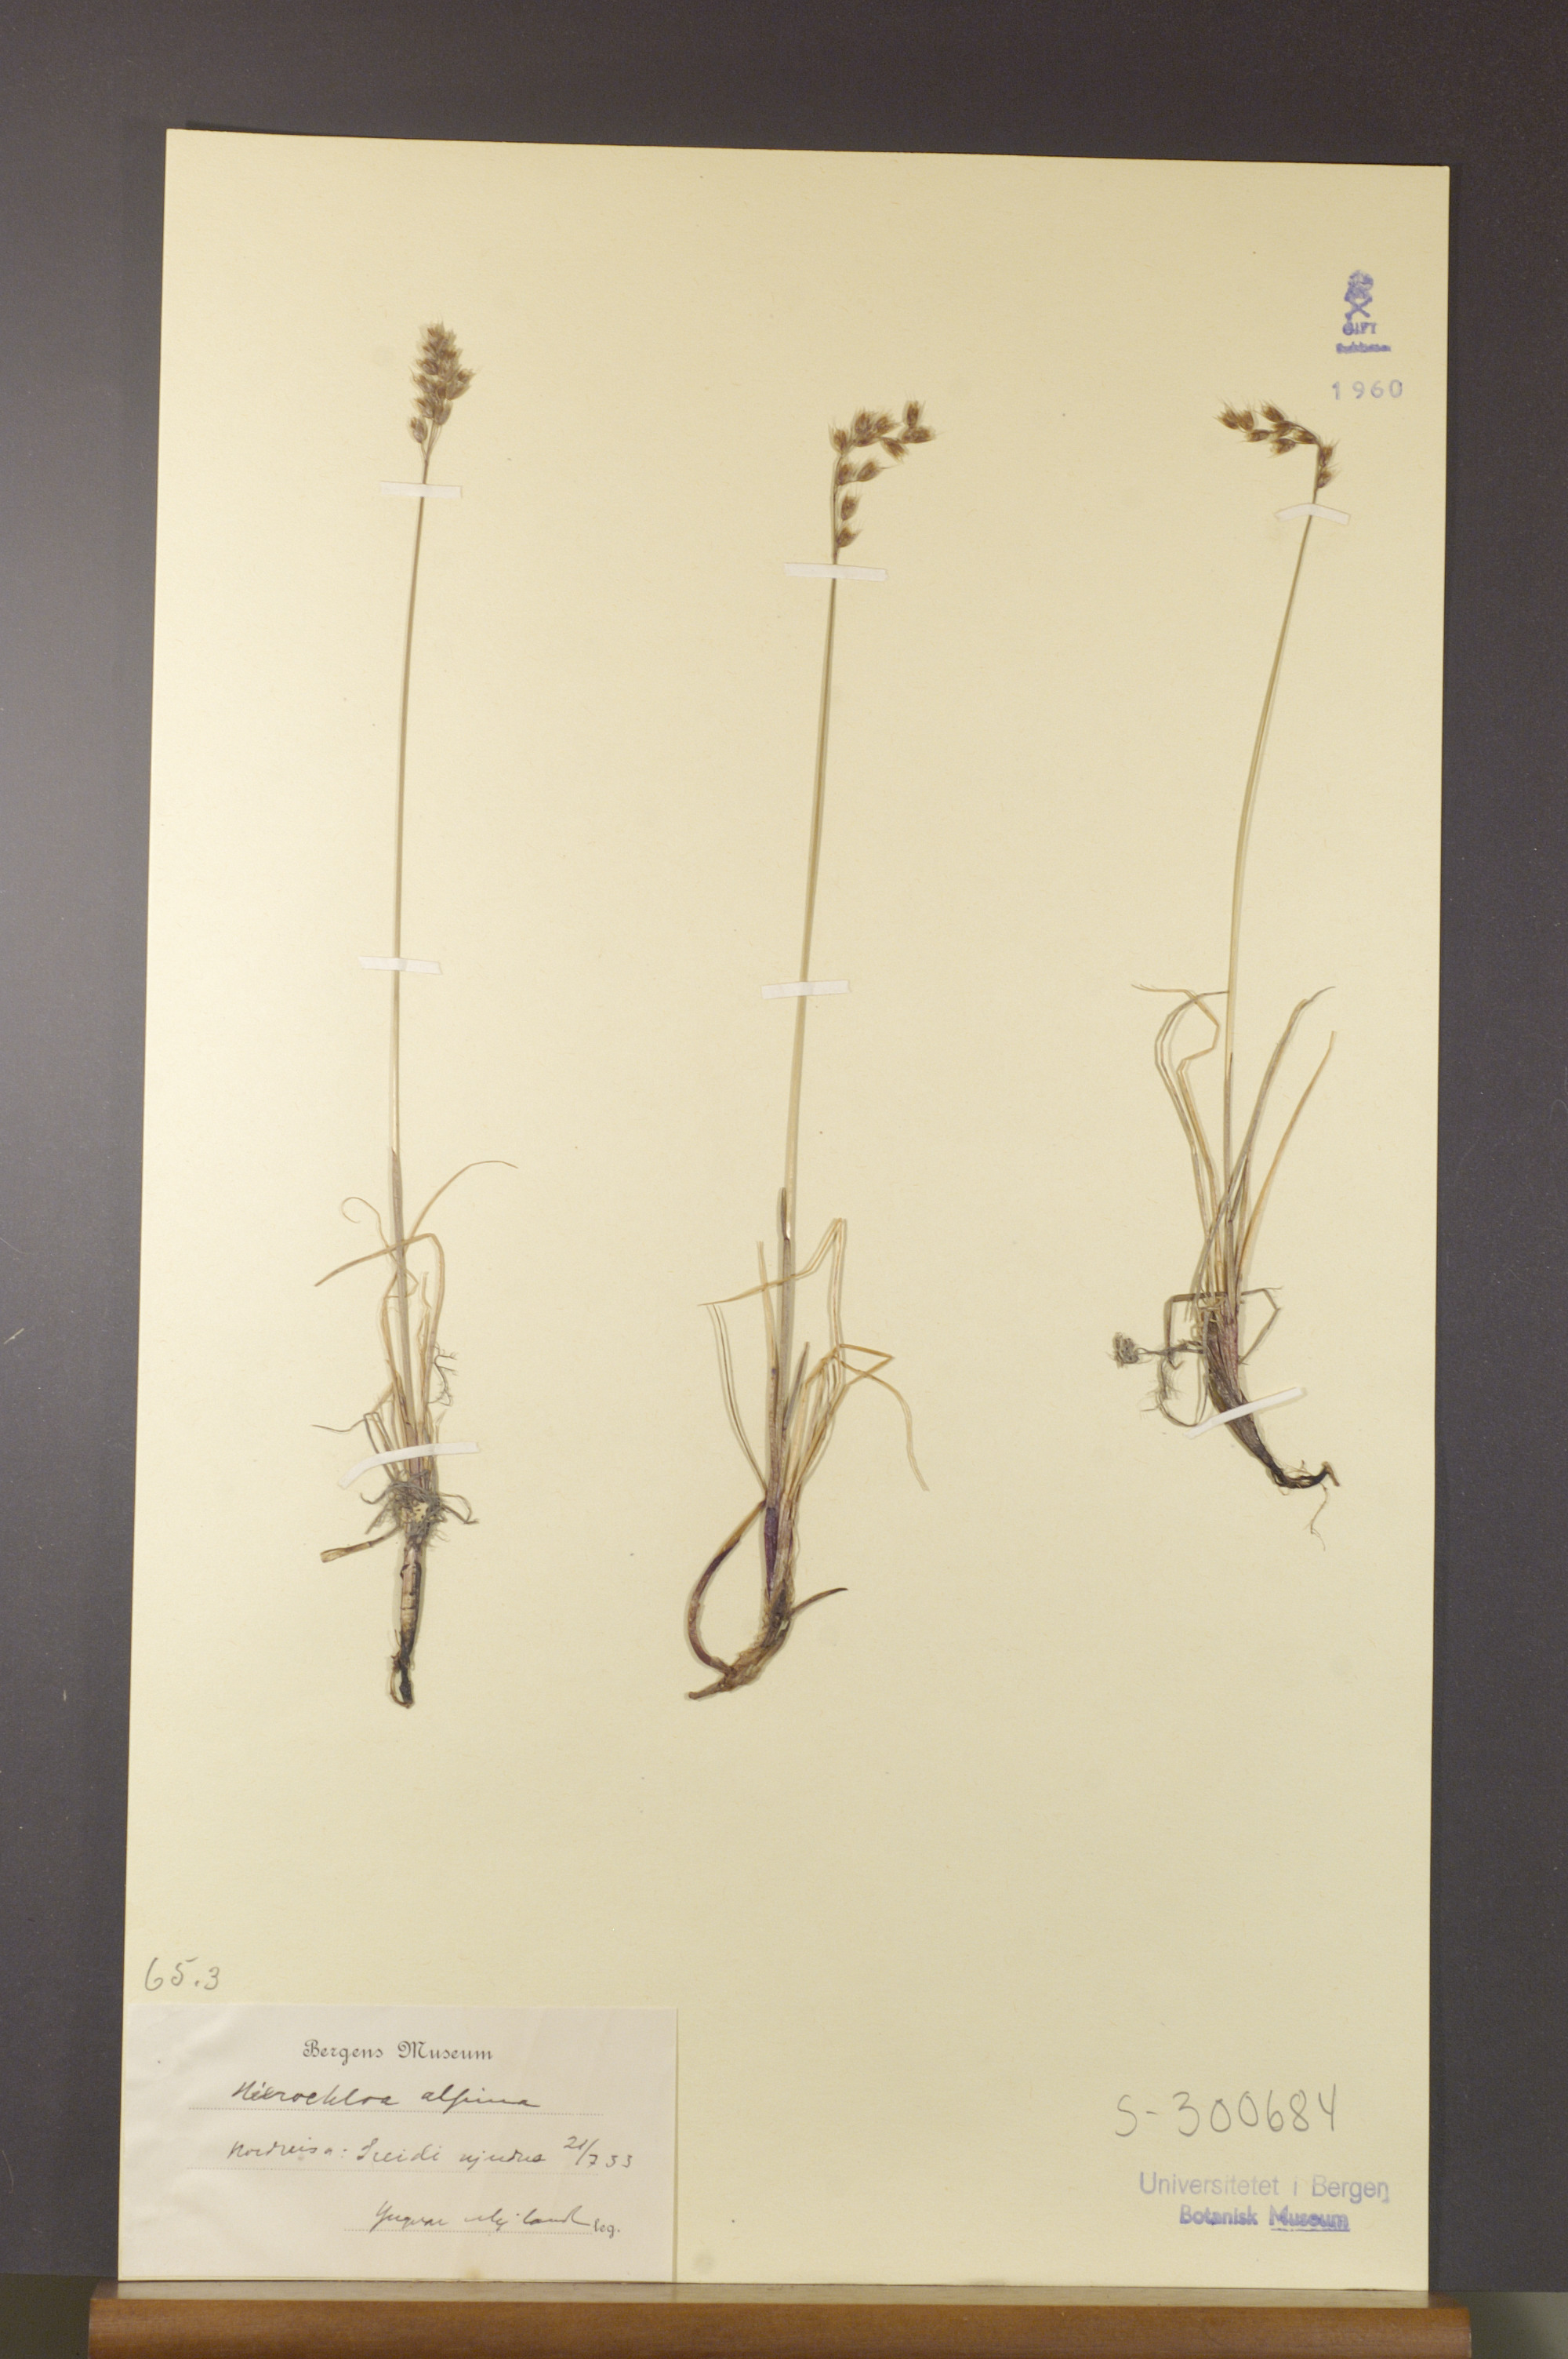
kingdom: Plantae
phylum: Tracheophyta
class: Liliopsida
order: Poales
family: Poaceae
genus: Anthoxanthum
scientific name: Anthoxanthum monticola
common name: Alpine sweetgrass
